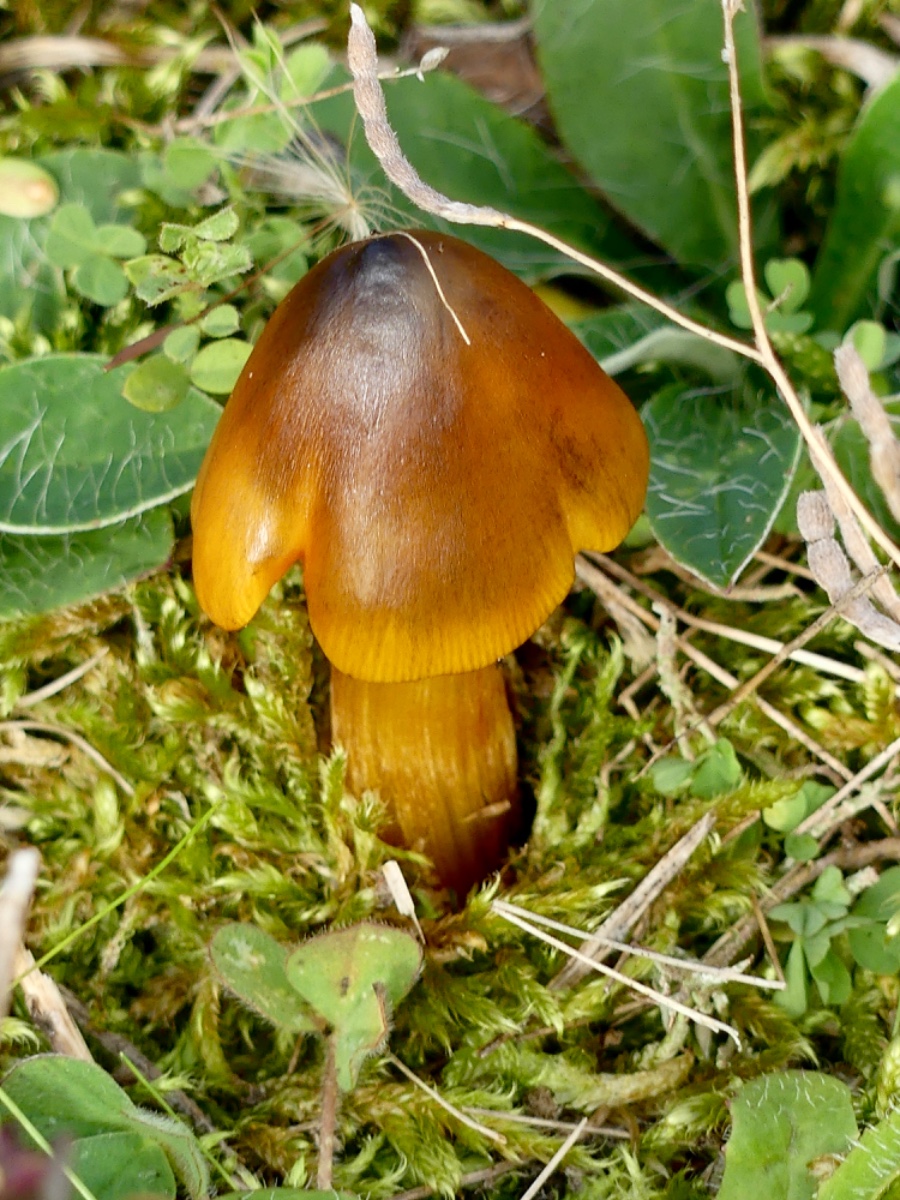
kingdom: Fungi
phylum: Basidiomycota
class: Agaricomycetes
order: Agaricales
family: Hygrophoraceae
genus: Hygrocybe
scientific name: Hygrocybe conica
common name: kegle-vokshat
